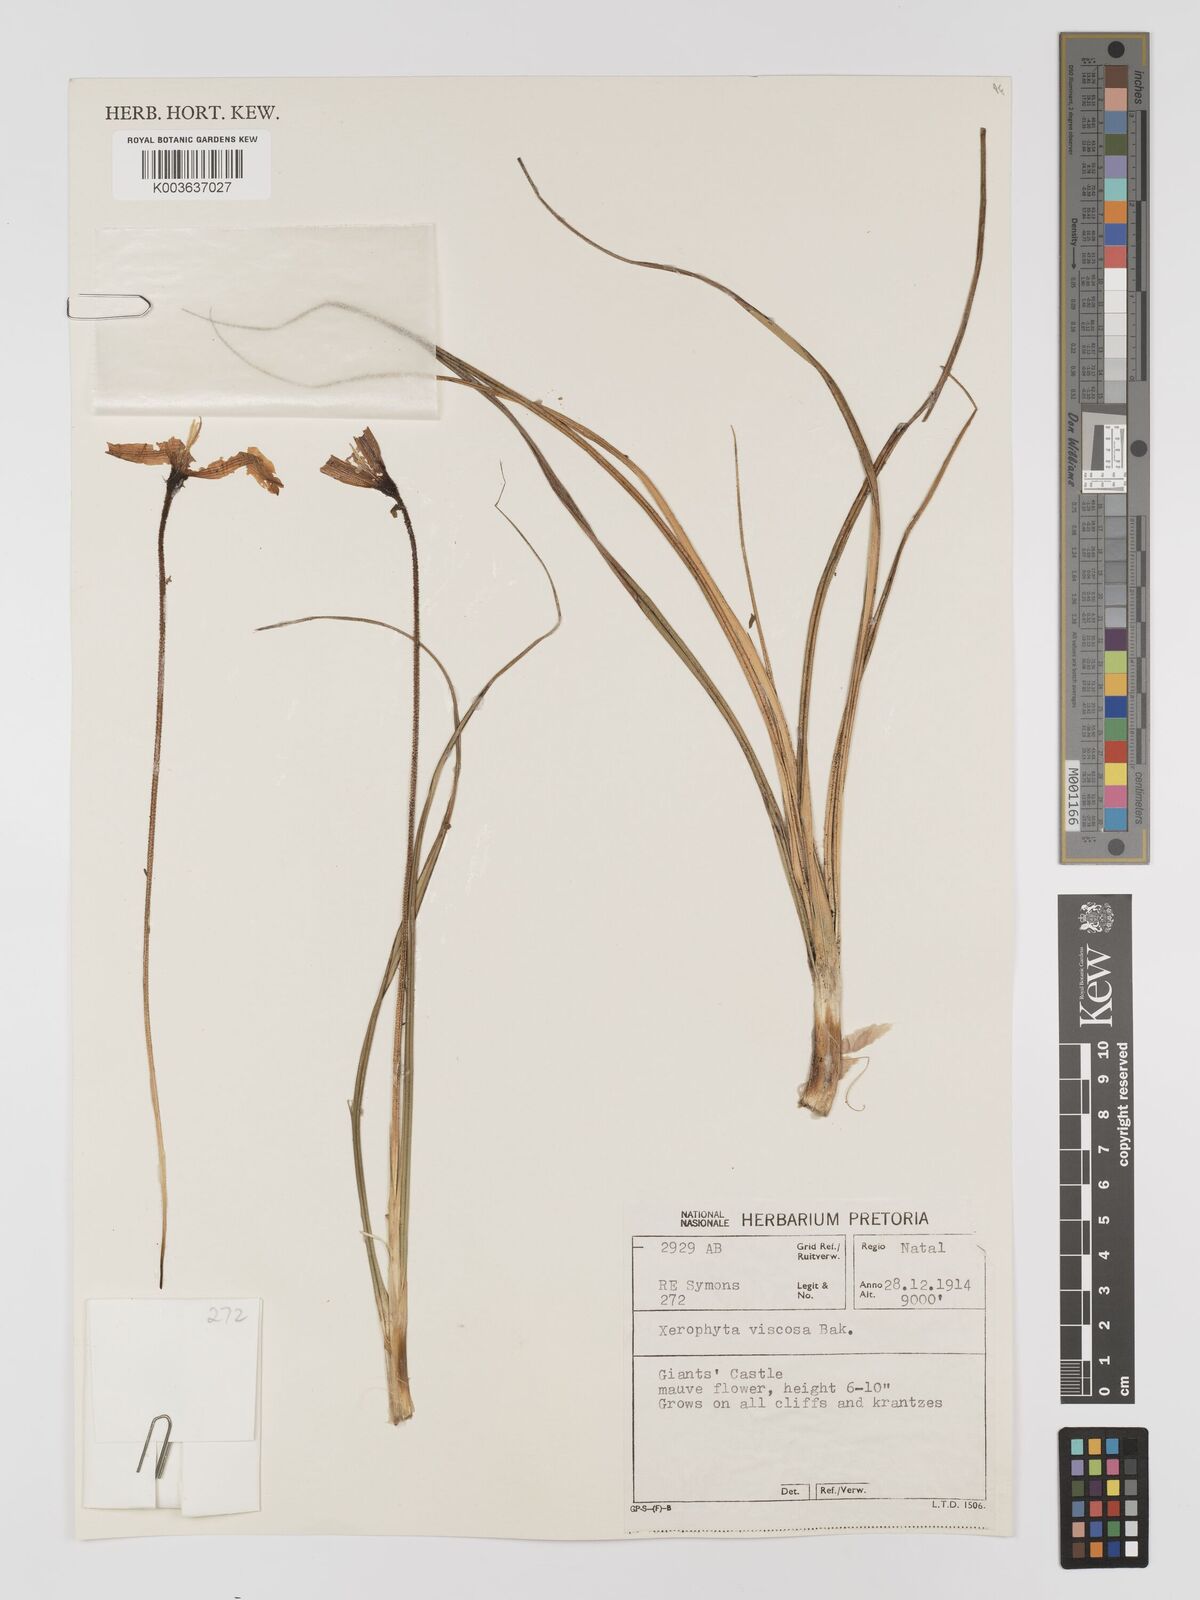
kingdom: Plantae
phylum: Tracheophyta
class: Liliopsida
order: Pandanales
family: Velloziaceae
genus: Xerophyta
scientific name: Xerophyta viscosa
